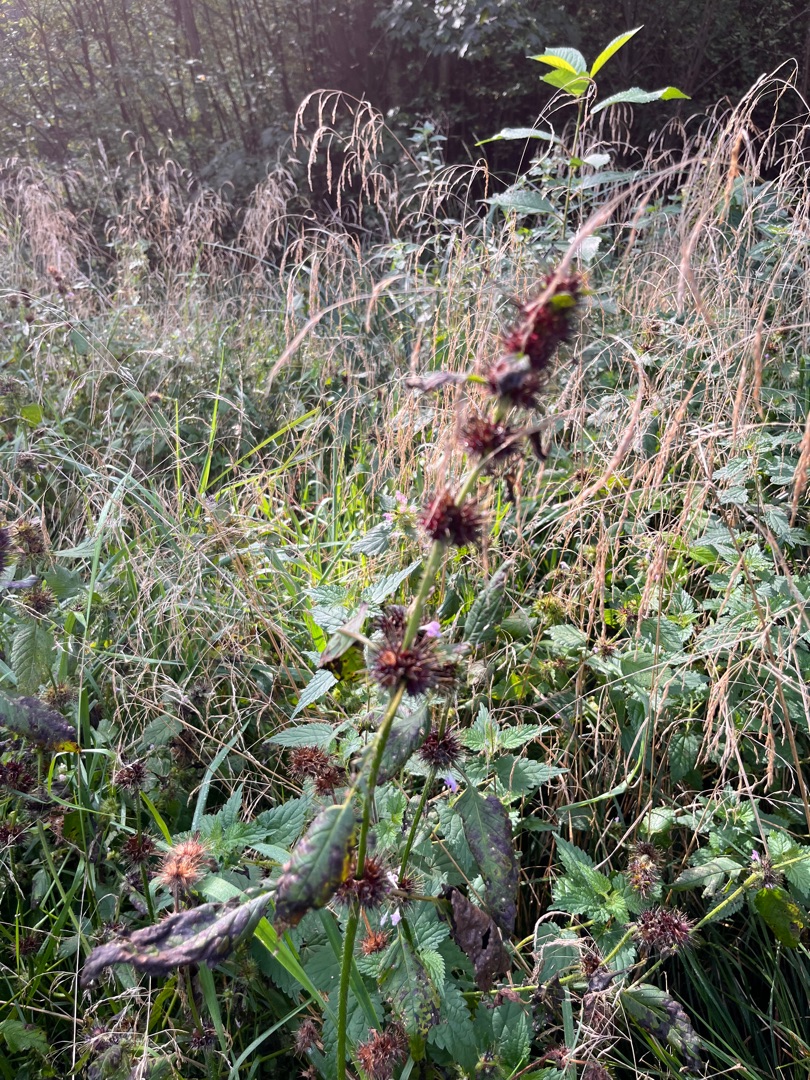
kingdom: Plantae
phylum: Tracheophyta
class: Magnoliopsida
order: Lamiales
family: Lamiaceae
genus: Galeopsis
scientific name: Galeopsis
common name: Hanekroslægten
